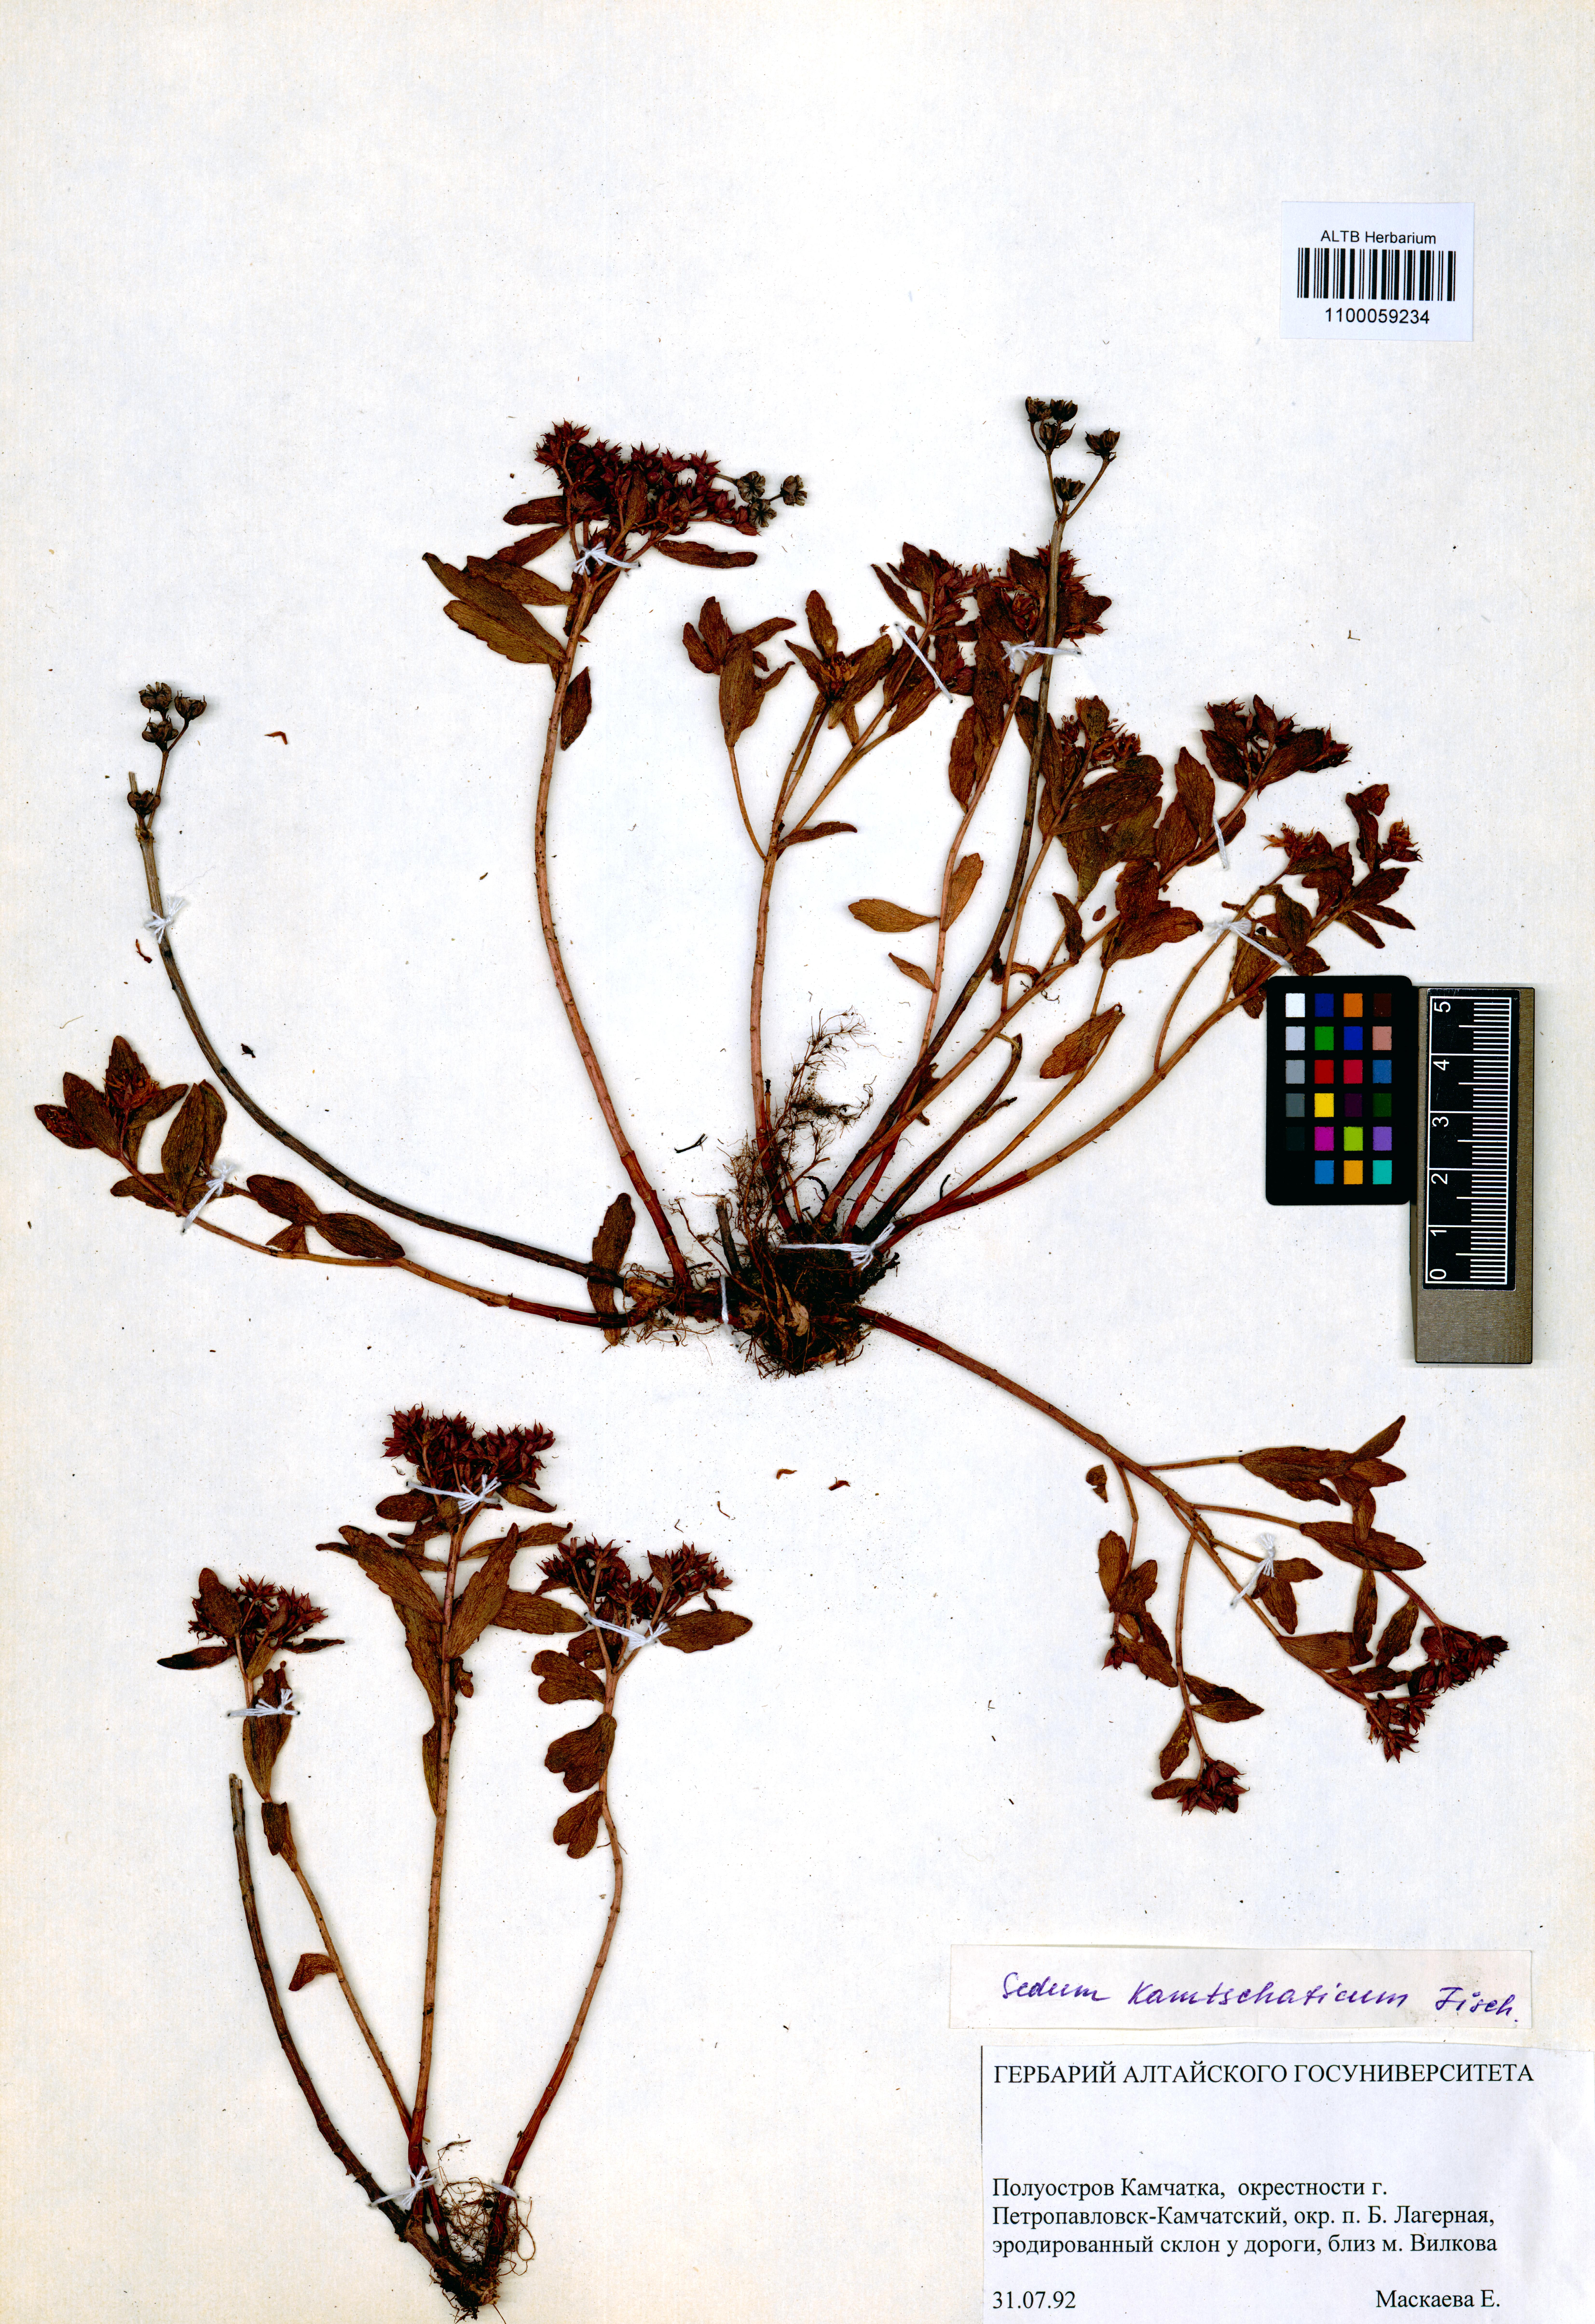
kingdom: Plantae
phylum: Tracheophyta
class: Magnoliopsida
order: Saxifragales
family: Crassulaceae
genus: Phedimus
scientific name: Phedimus kamtschaticus
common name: Orange stonecrop
